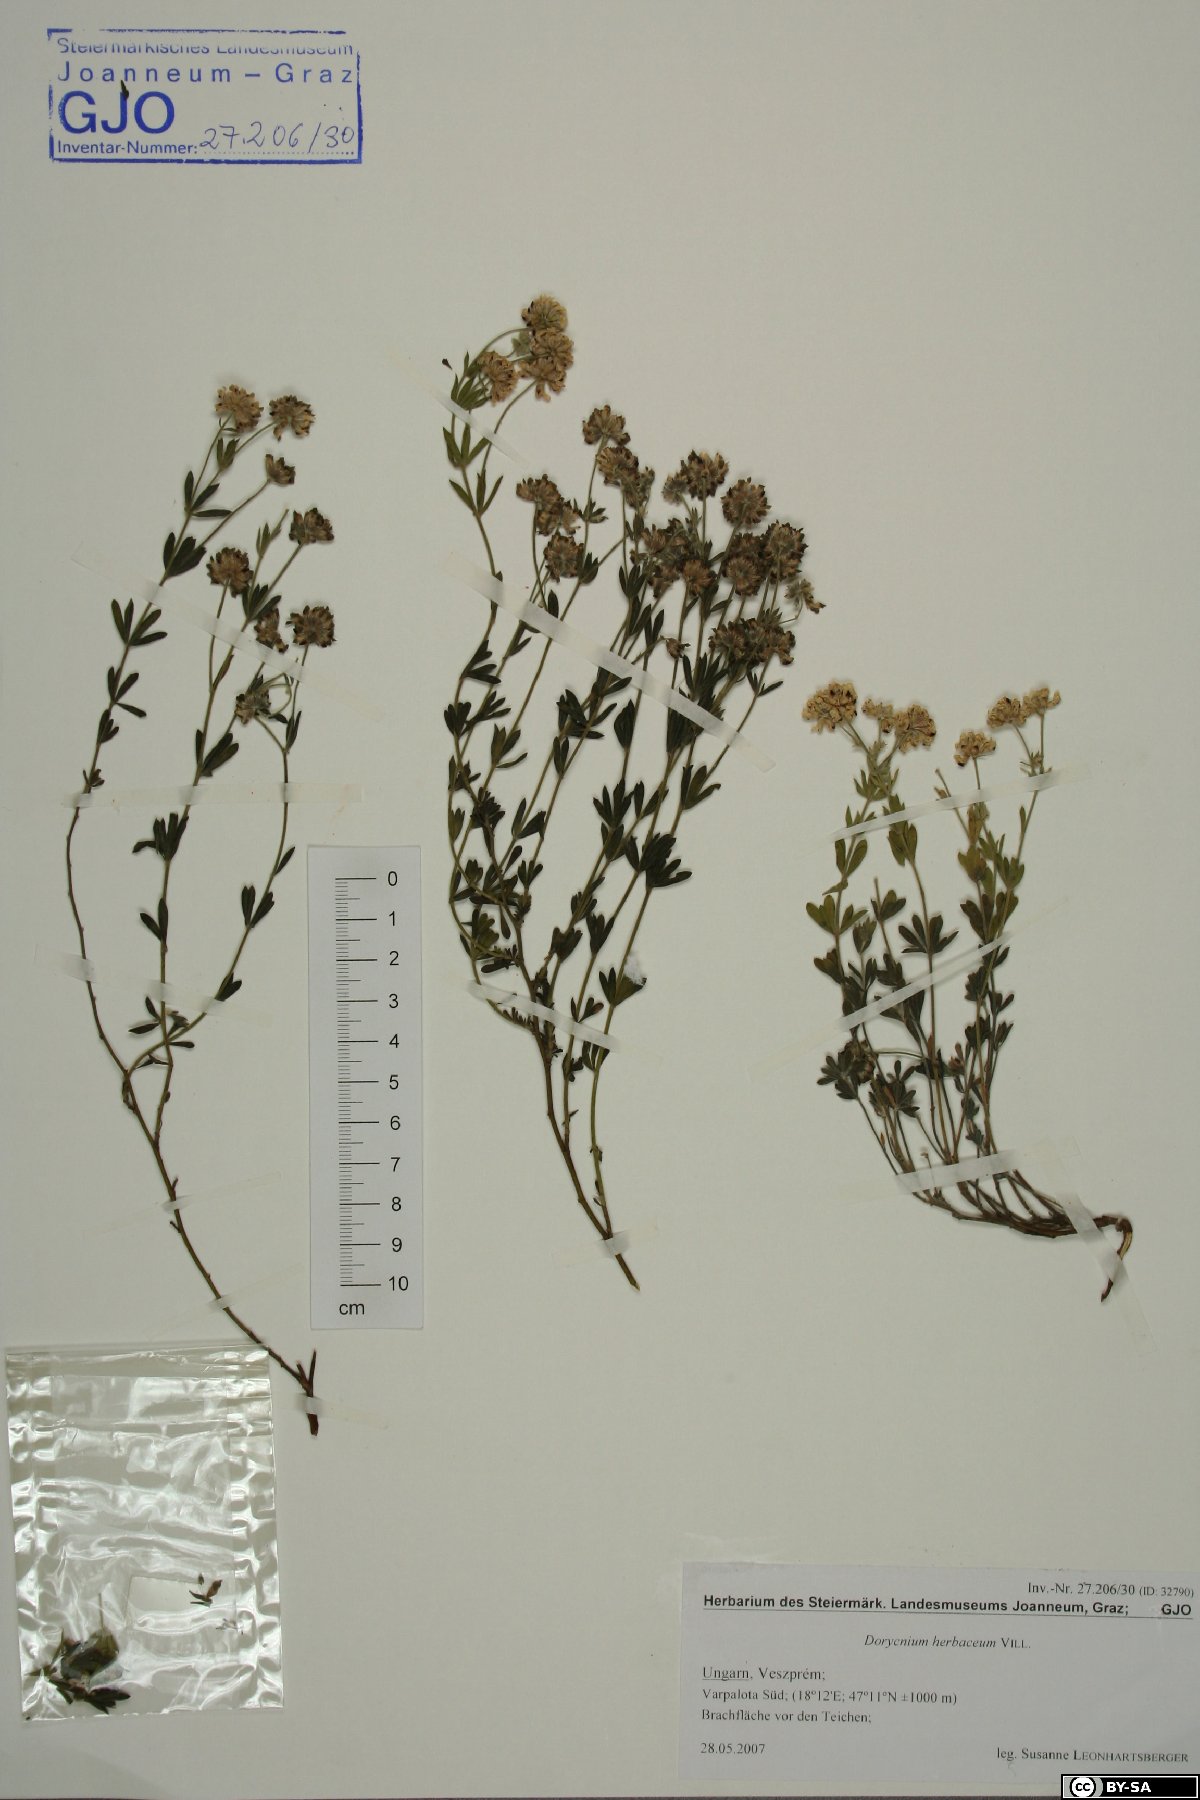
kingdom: Plantae
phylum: Tracheophyta
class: Magnoliopsida
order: Fabales
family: Fabaceae
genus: Lotus
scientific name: Lotus herbaceus
